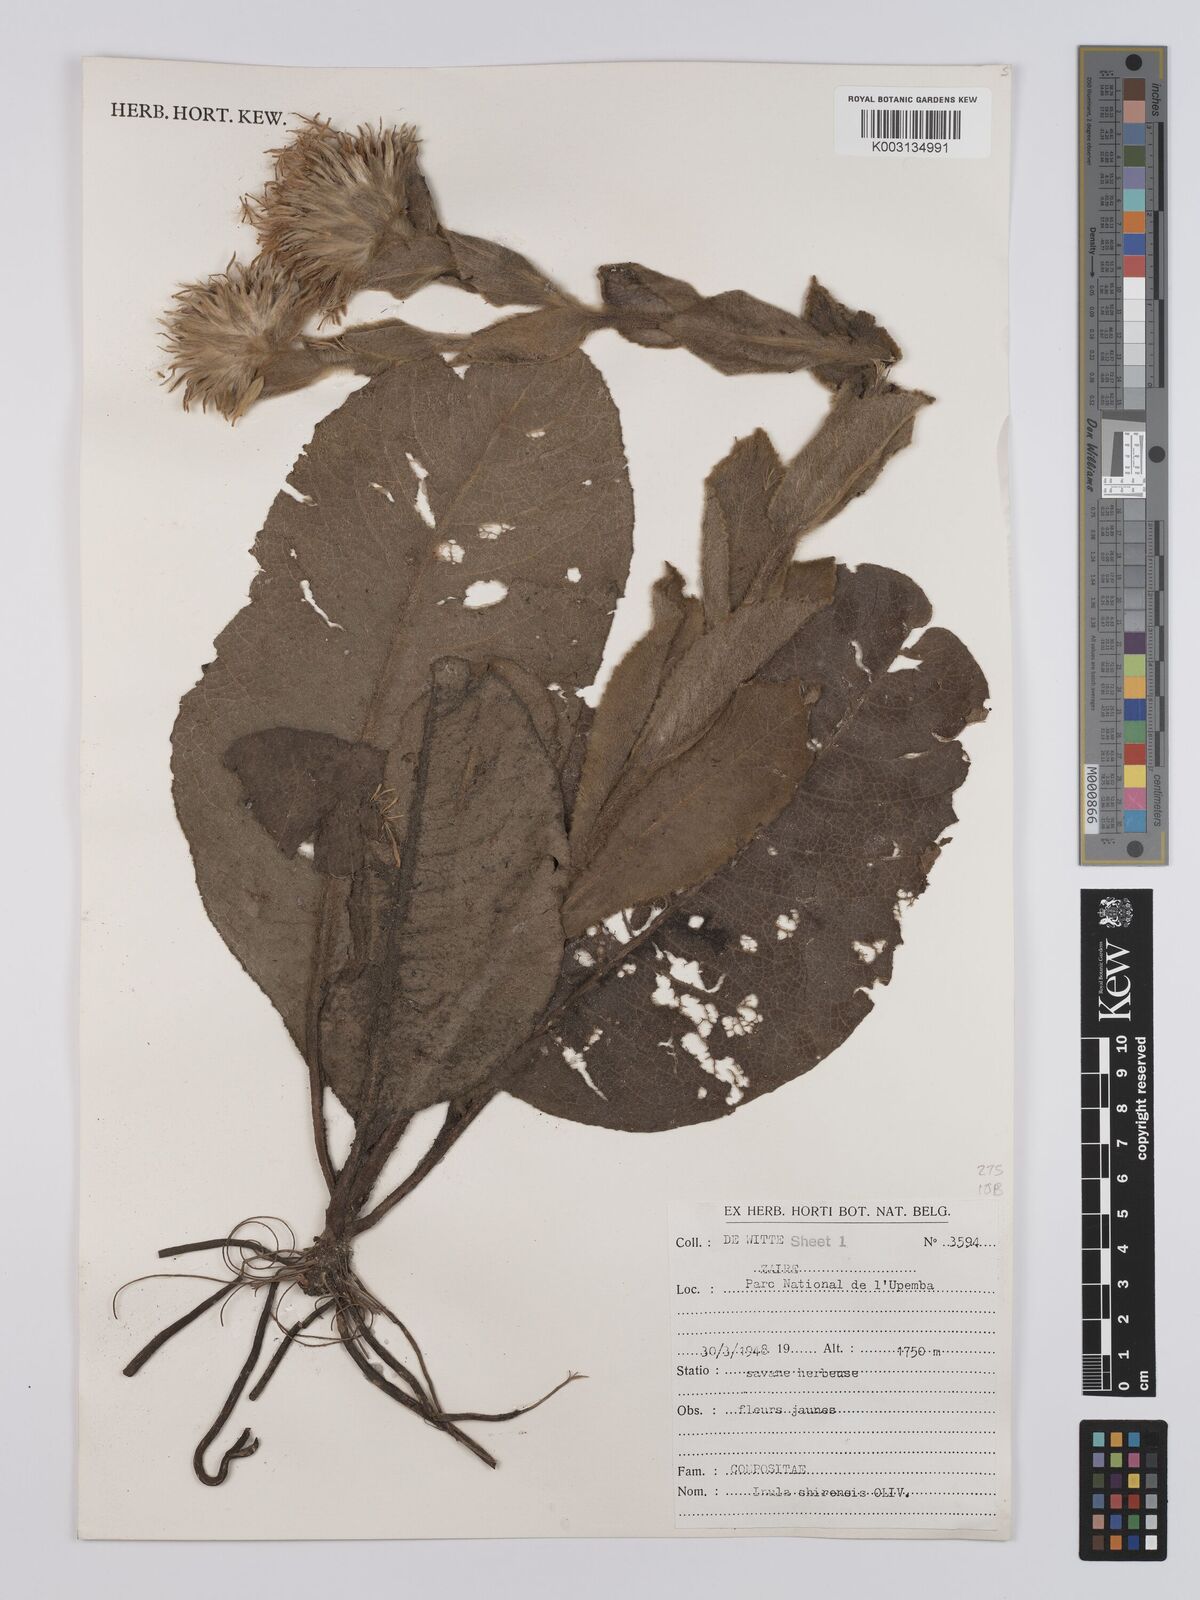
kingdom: Plantae
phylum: Tracheophyta
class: Magnoliopsida
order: Asterales
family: Asteraceae
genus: Monactinocephalus
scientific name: Monactinocephalus shirensis
